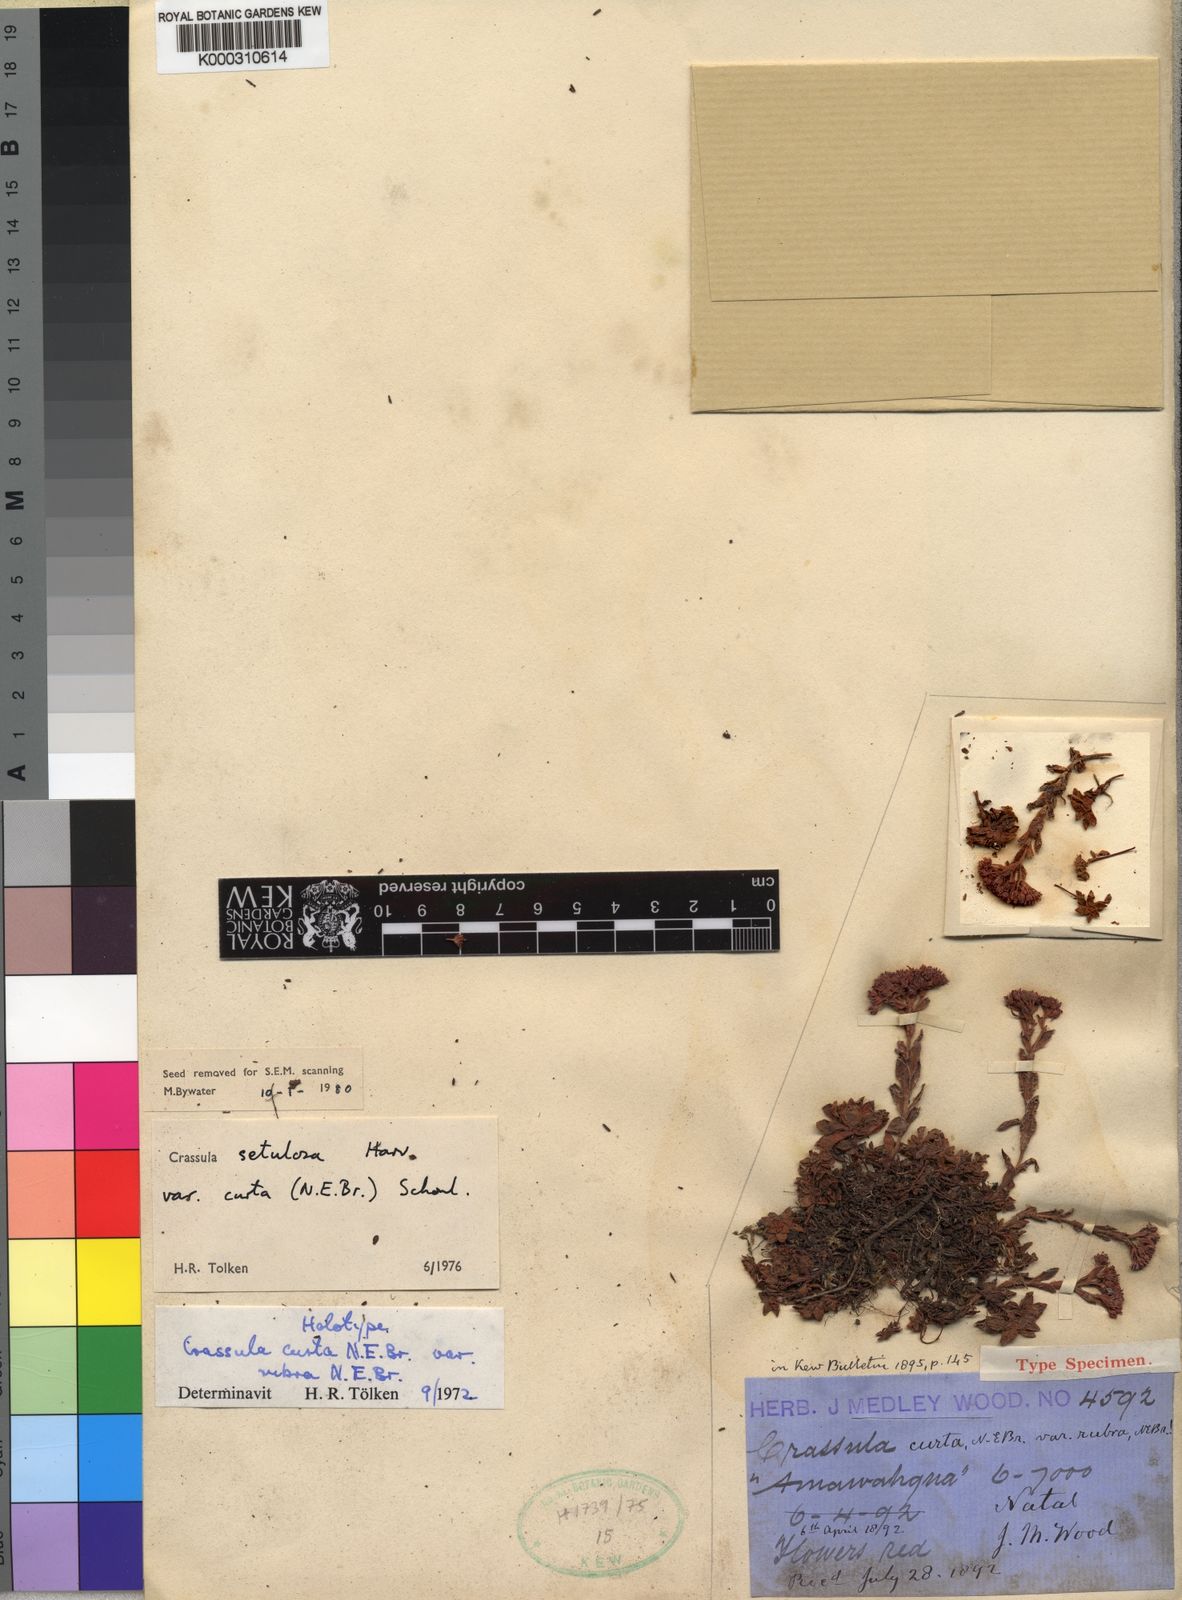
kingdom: Plantae
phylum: Tracheophyta
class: Magnoliopsida
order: Saxifragales
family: Crassulaceae
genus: Crassula
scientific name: Crassula setulosa
